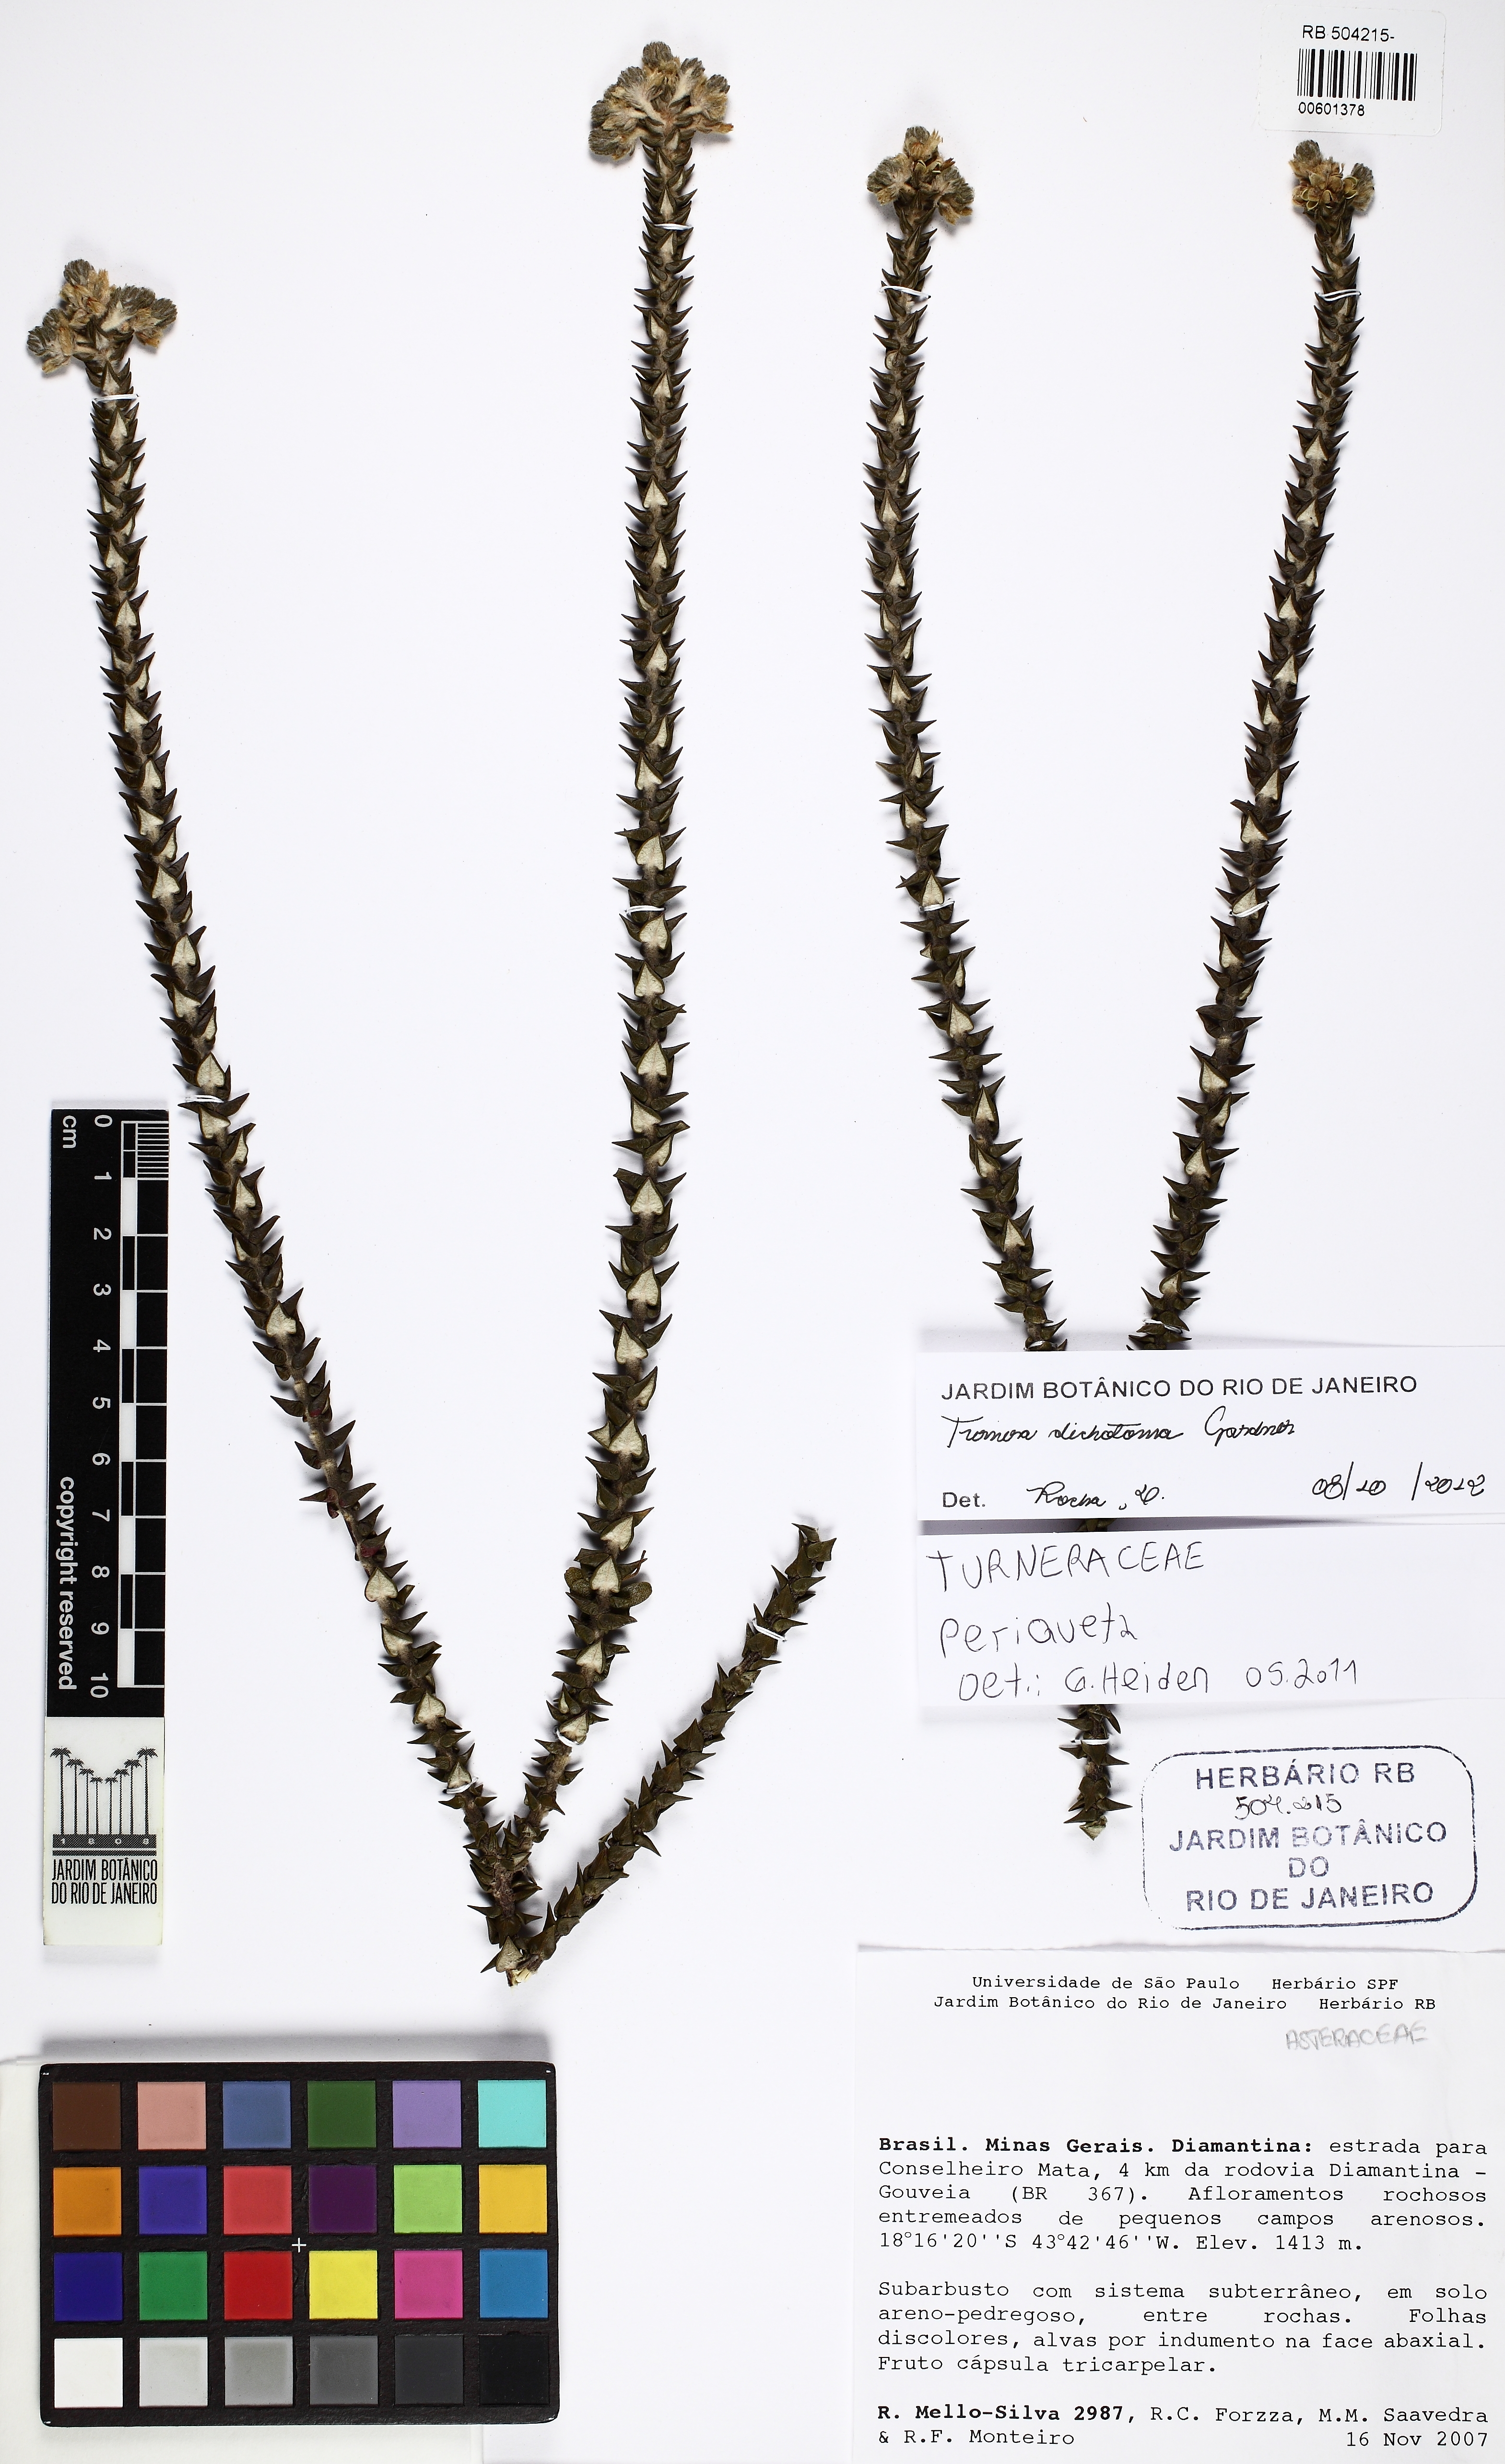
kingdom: Plantae
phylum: Tracheophyta
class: Magnoliopsida
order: Malpighiales
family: Turneraceae
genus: Turnera
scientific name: Turnera dichotoma
